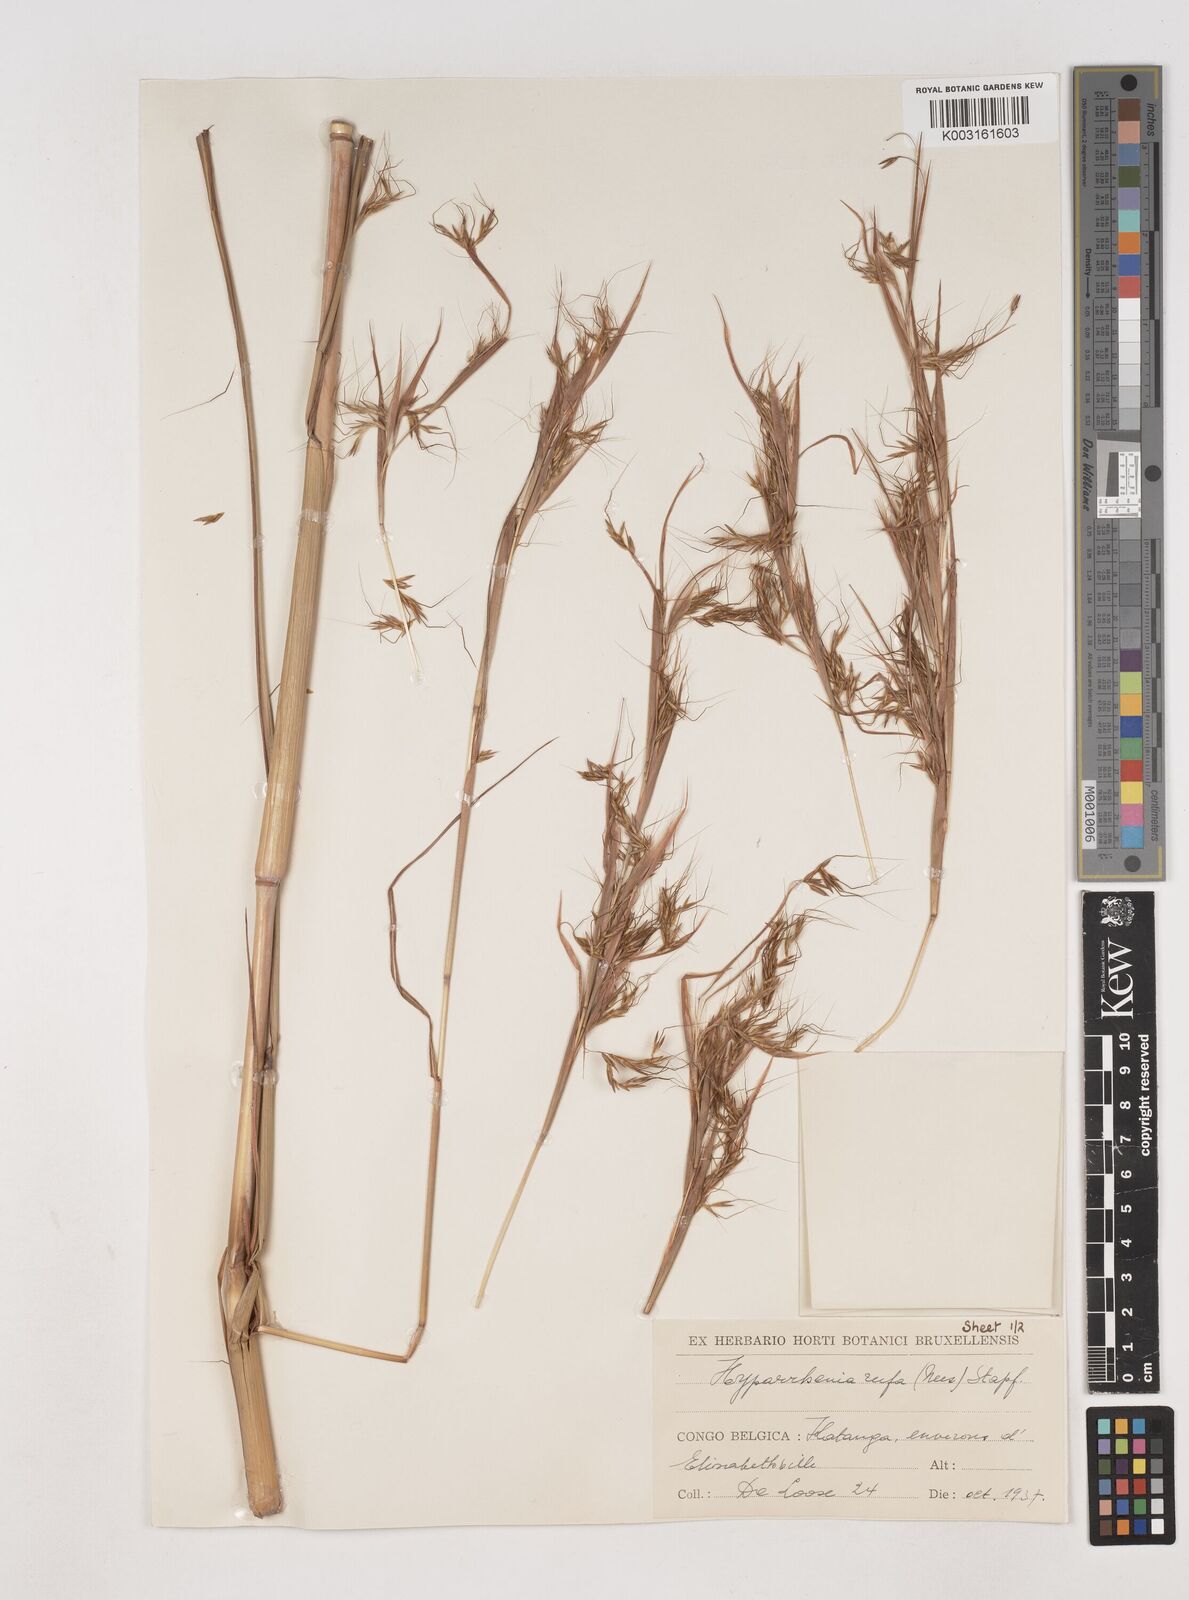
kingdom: Plantae
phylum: Tracheophyta
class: Liliopsida
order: Poales
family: Poaceae
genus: Hyparrhenia
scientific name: Hyparrhenia rufa
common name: Jaraguagrass
